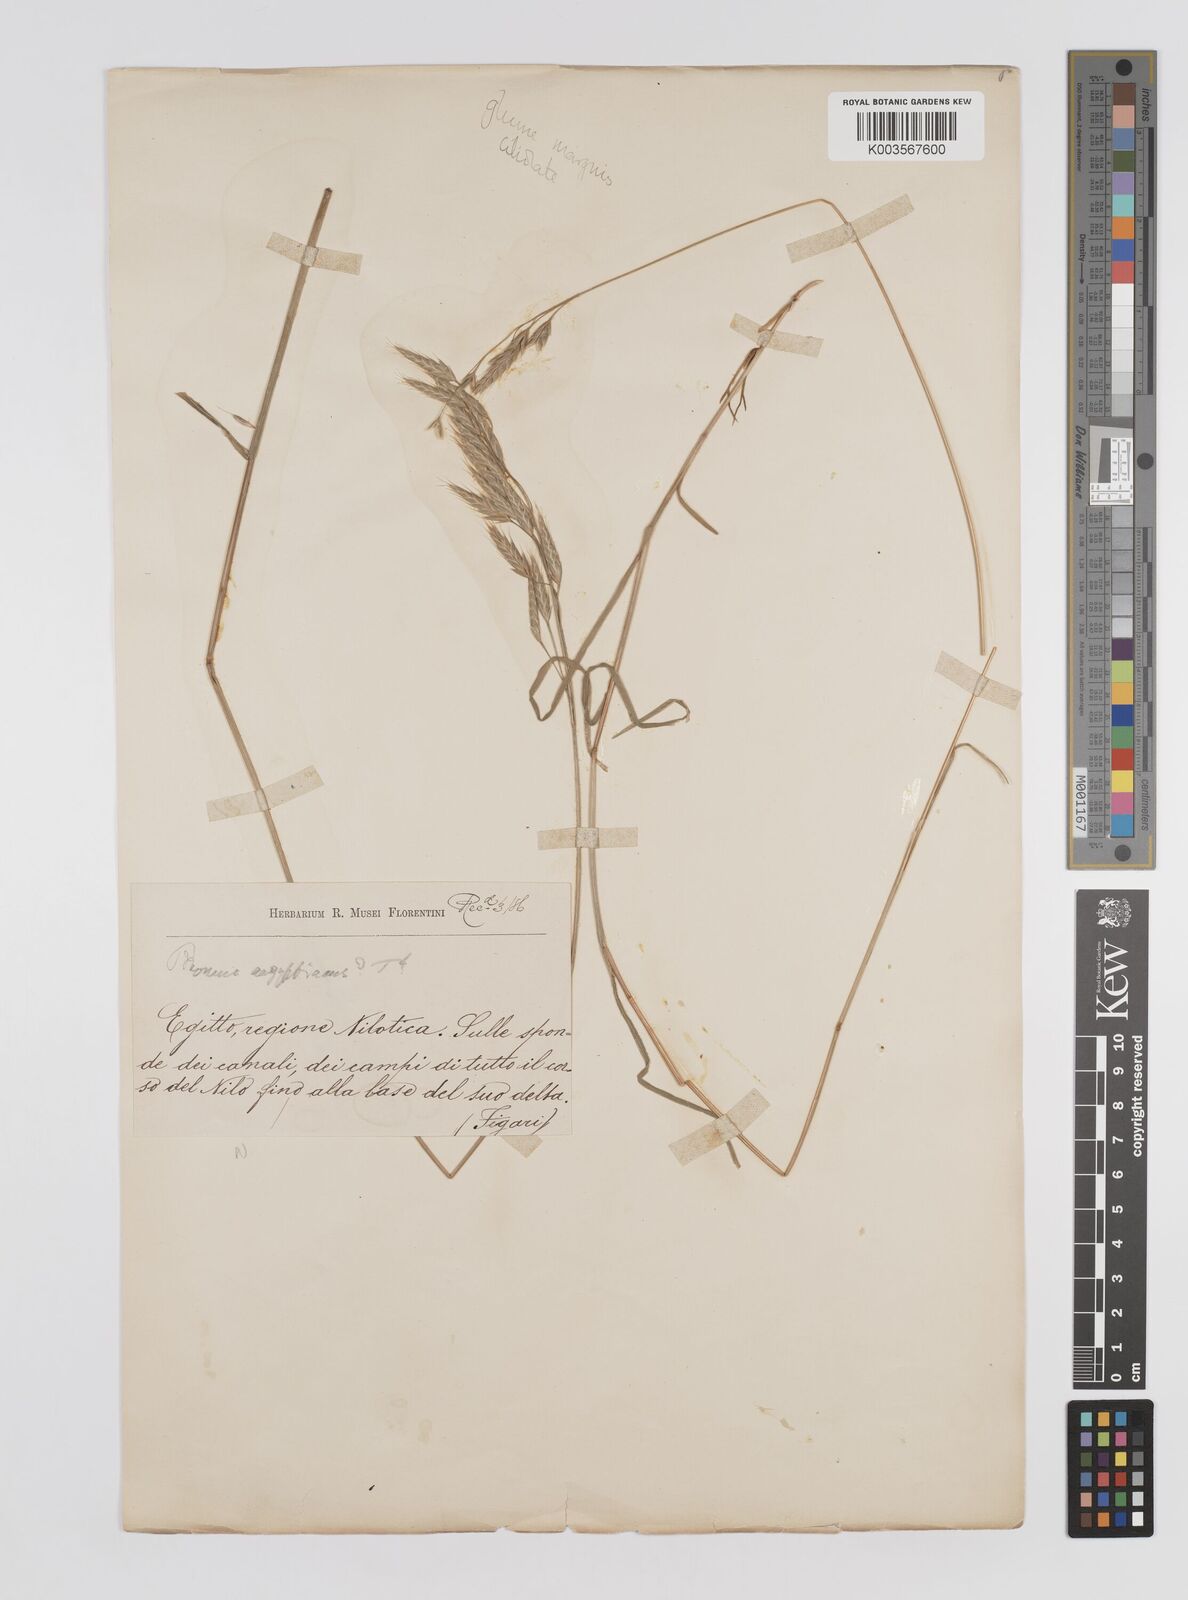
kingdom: Plantae
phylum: Tracheophyta
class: Liliopsida
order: Poales
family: Poaceae
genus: Bromus
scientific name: Bromus aegyptiacus
